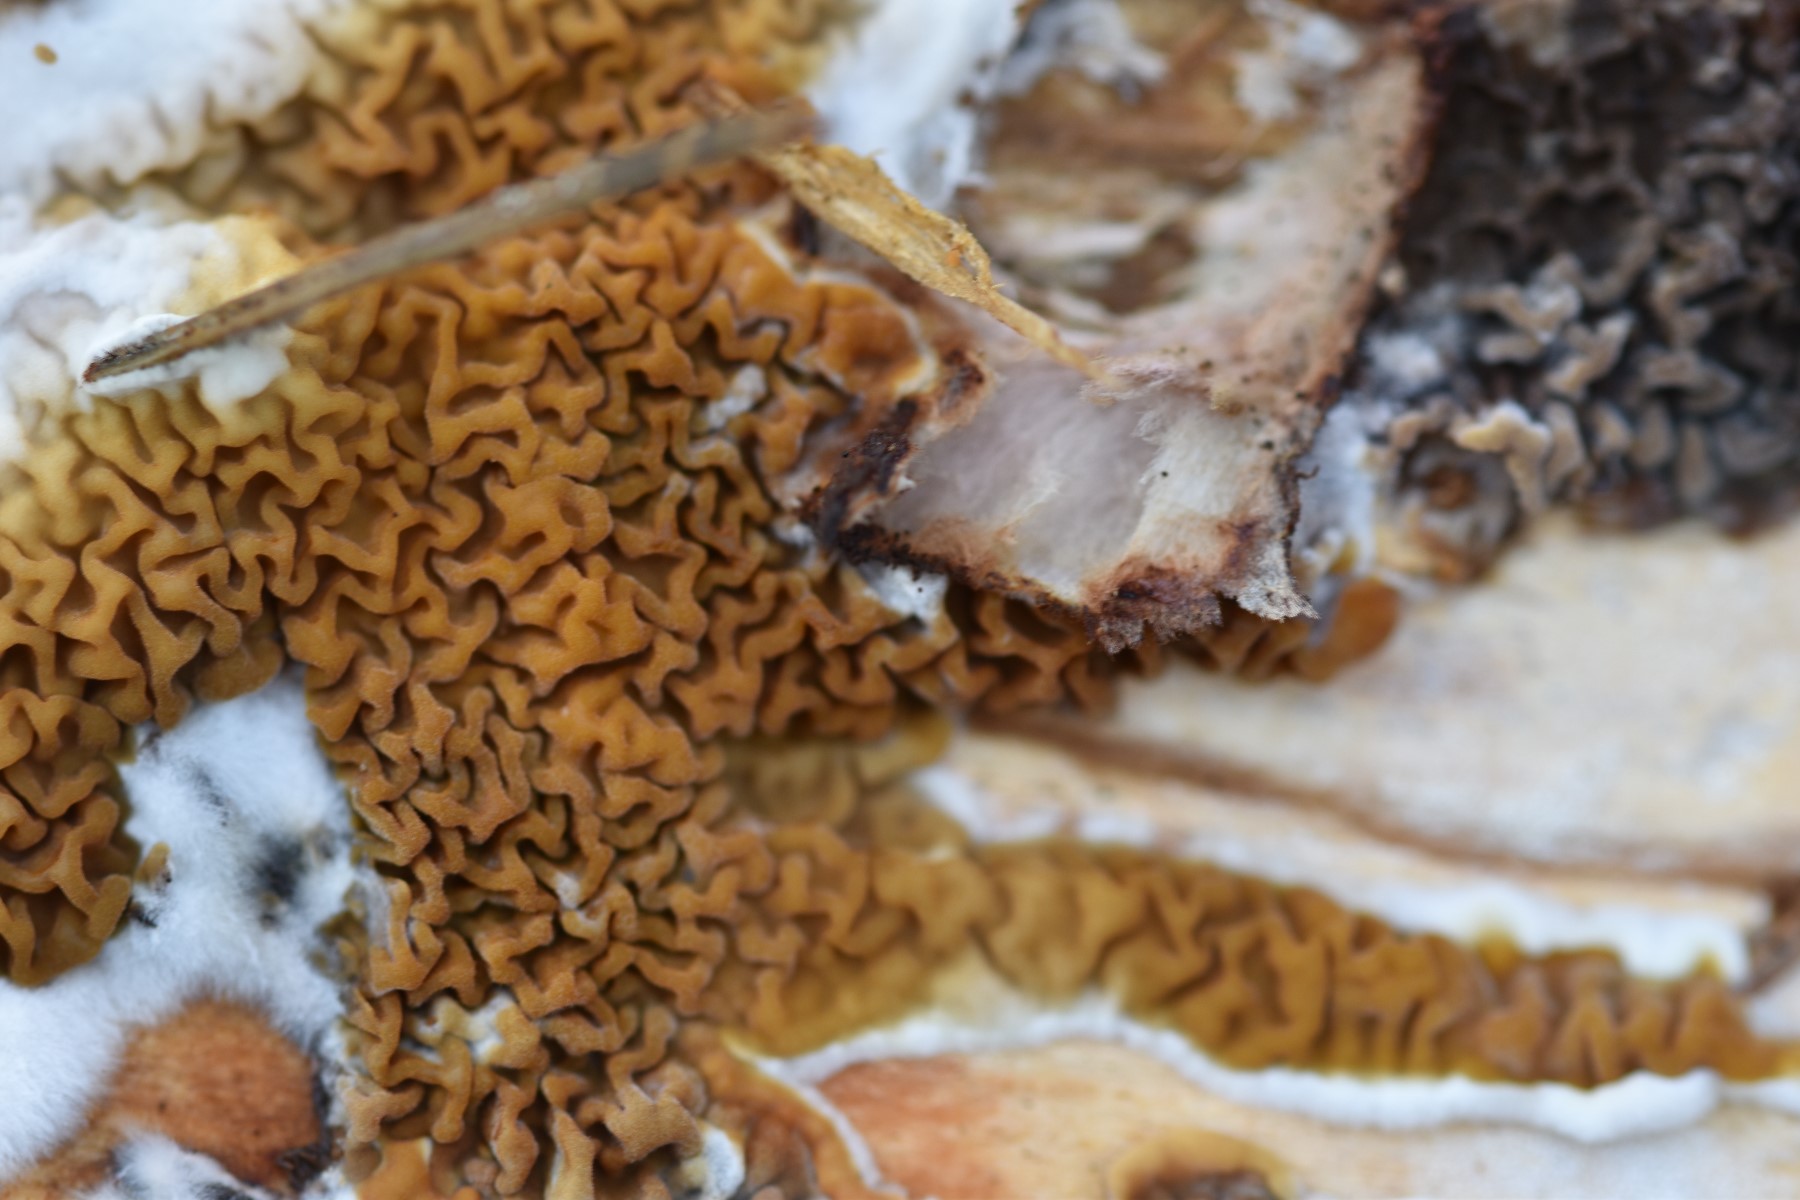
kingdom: Fungi
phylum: Basidiomycota
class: Agaricomycetes
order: Boletales
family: Serpulaceae
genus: Serpula
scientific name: Serpula himantioides
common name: tyndkødet hussvamp
